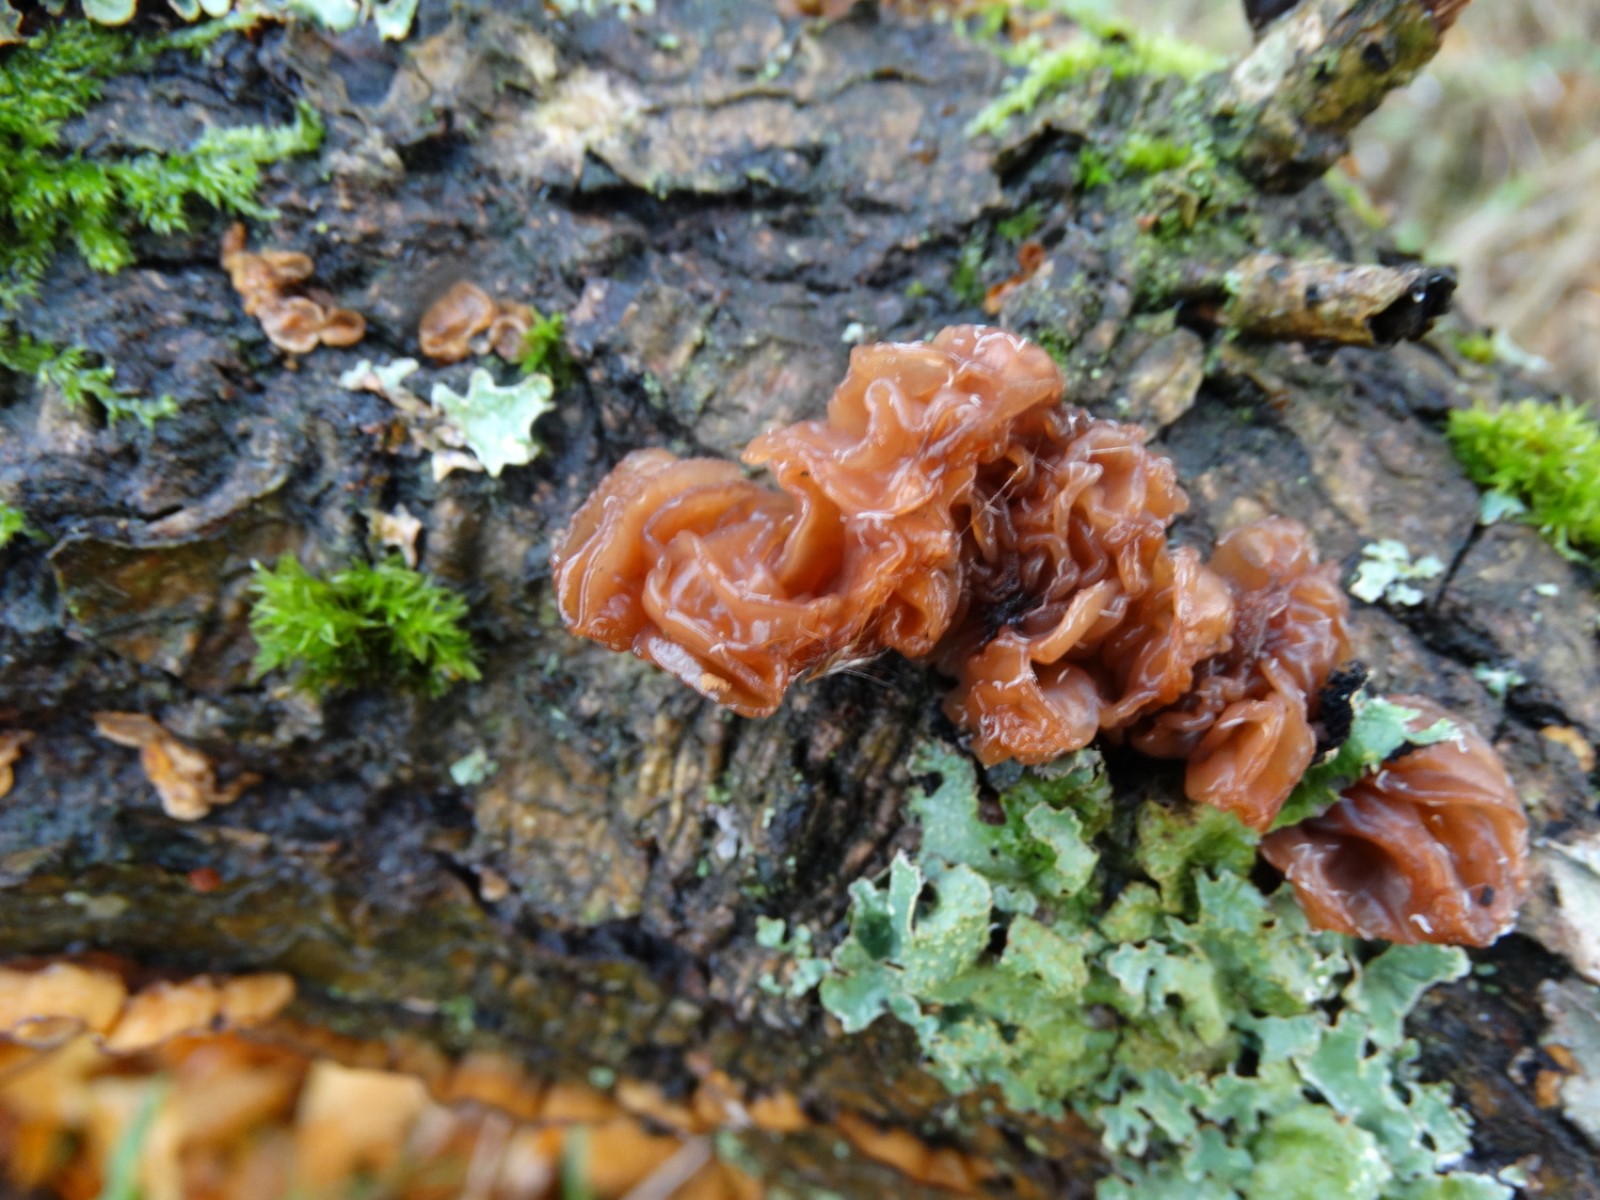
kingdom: Fungi
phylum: Basidiomycota
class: Tremellomycetes
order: Tremellales
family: Tremellaceae
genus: Phaeotremella
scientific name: Phaeotremella frondosa
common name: kæmpe-bævresvamp
